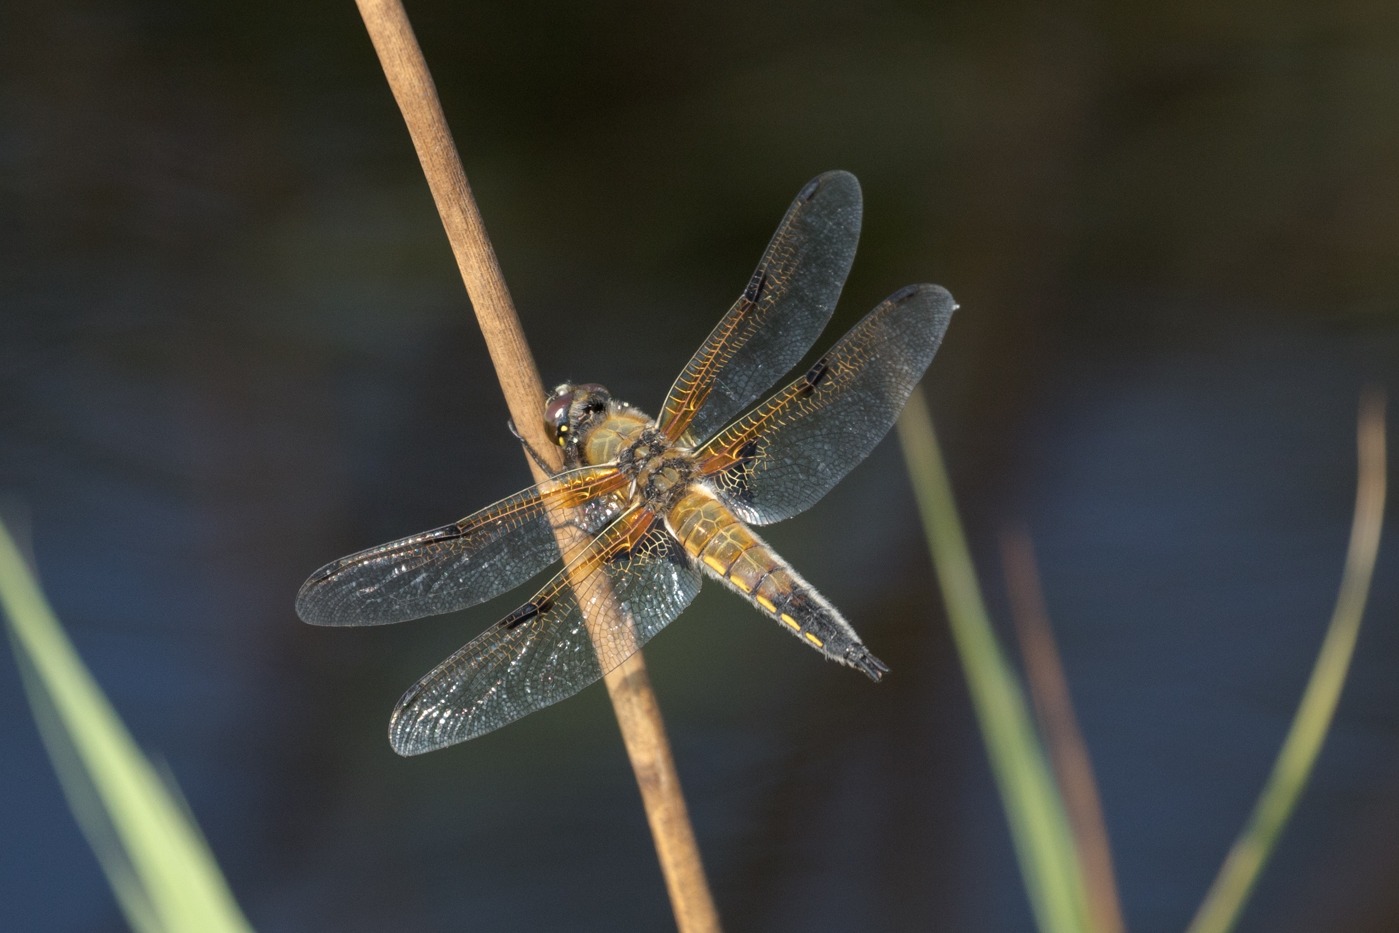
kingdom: Animalia
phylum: Arthropoda
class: Insecta
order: Odonata
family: Libellulidae
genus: Libellula
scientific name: Libellula quadrimaculata
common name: Fireplettet libel
